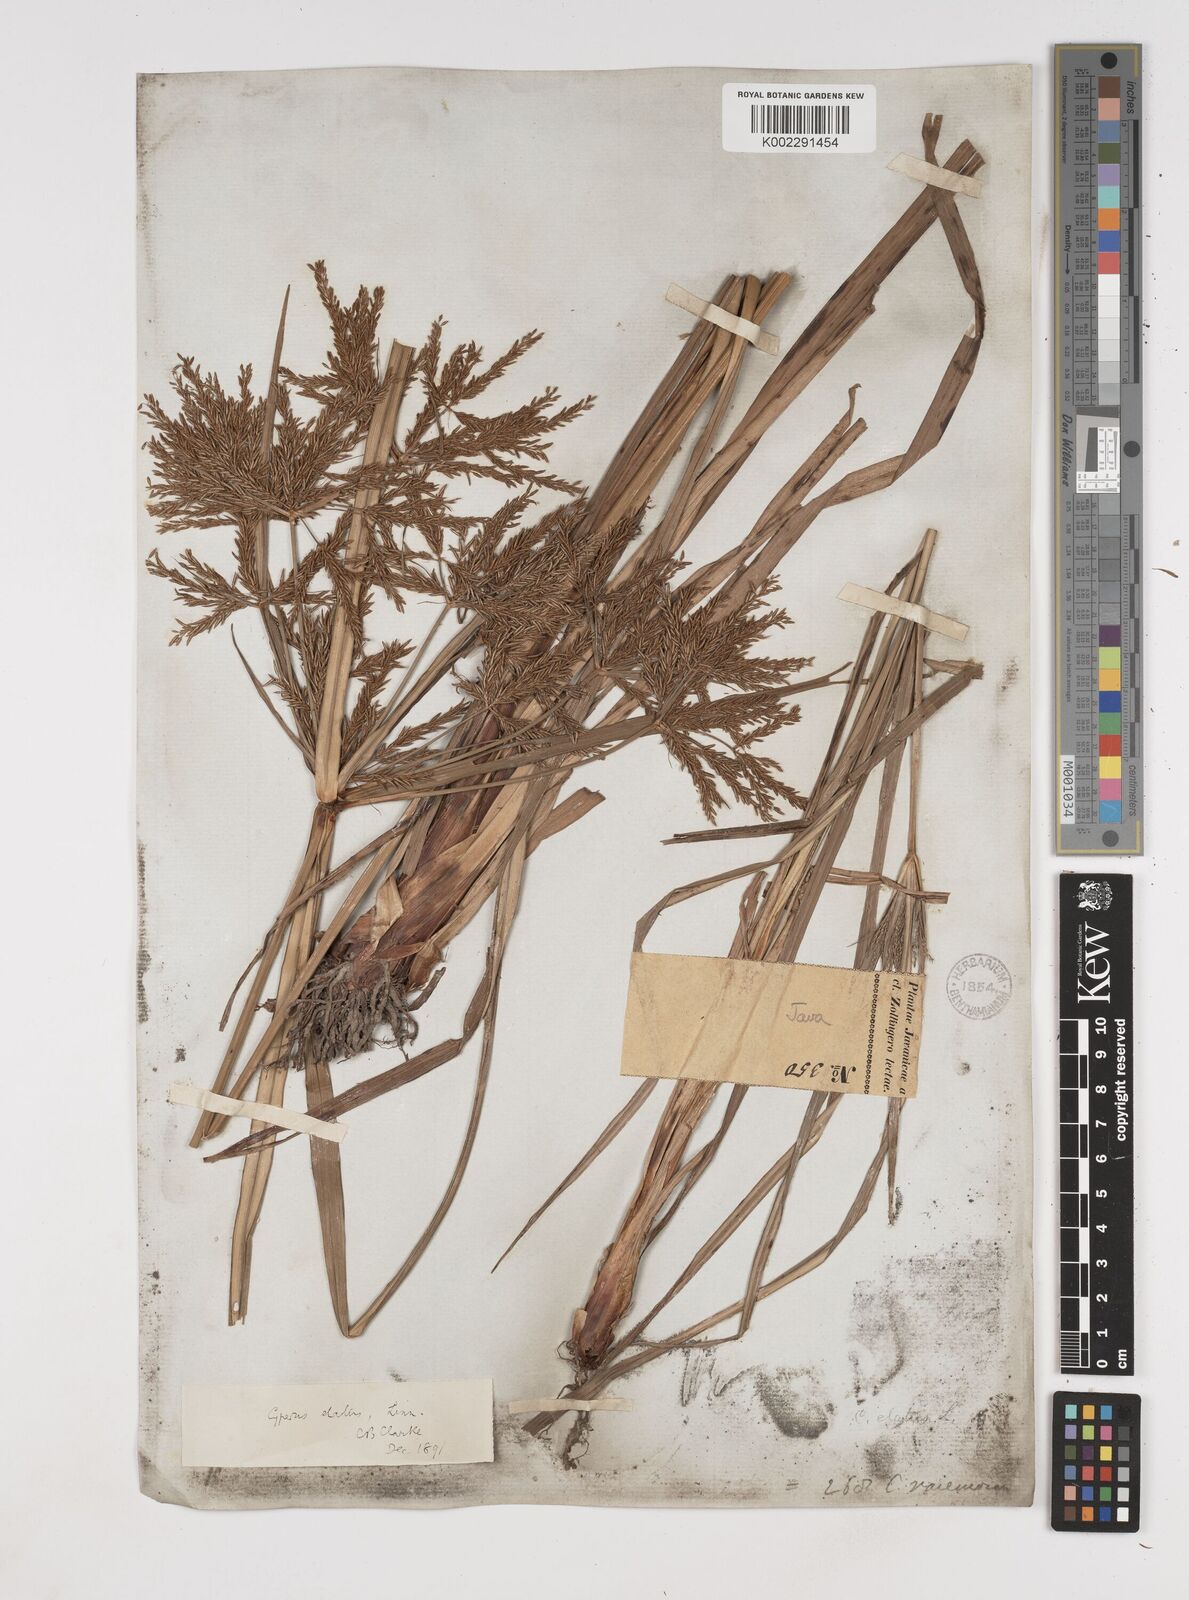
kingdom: Plantae
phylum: Tracheophyta
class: Liliopsida
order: Poales
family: Cyperaceae
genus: Cyperus
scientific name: Cyperus elatus
